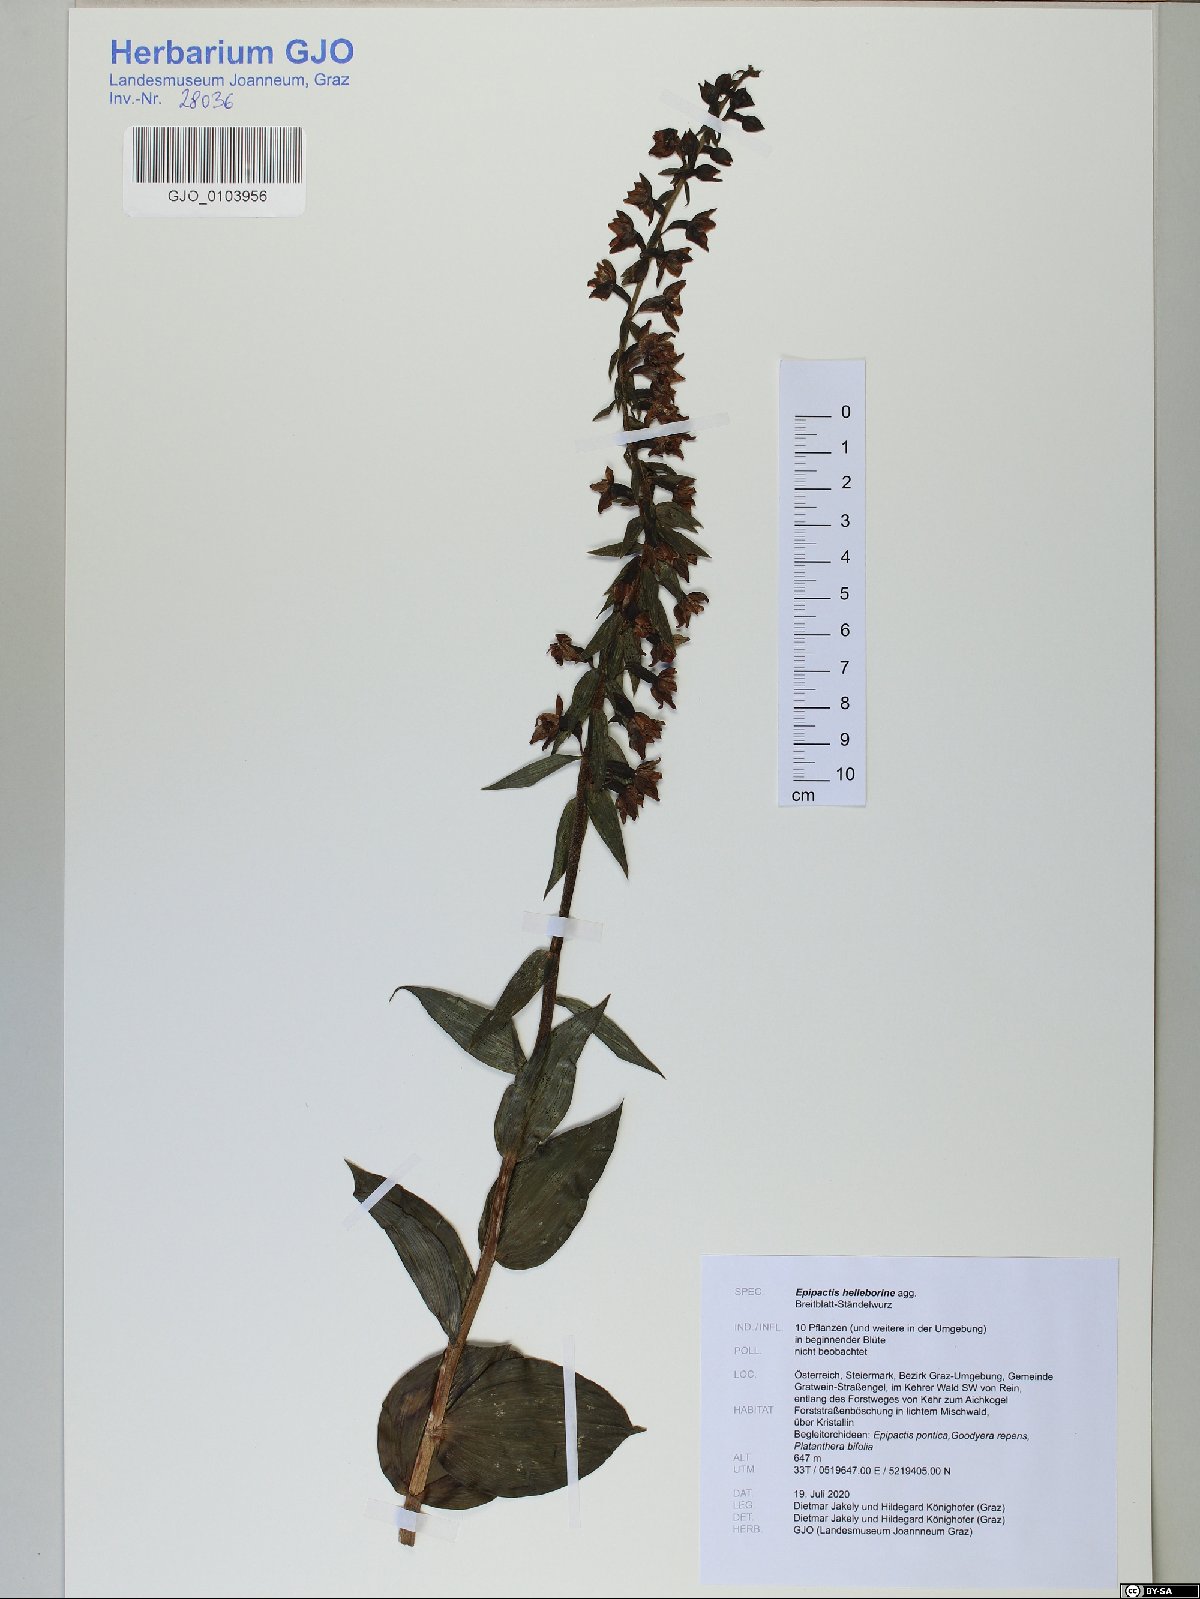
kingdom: Plantae
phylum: Tracheophyta
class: Liliopsida
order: Asparagales
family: Orchidaceae
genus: Epipactis
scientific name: Epipactis helleborine
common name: Broad-leaved helleborine
